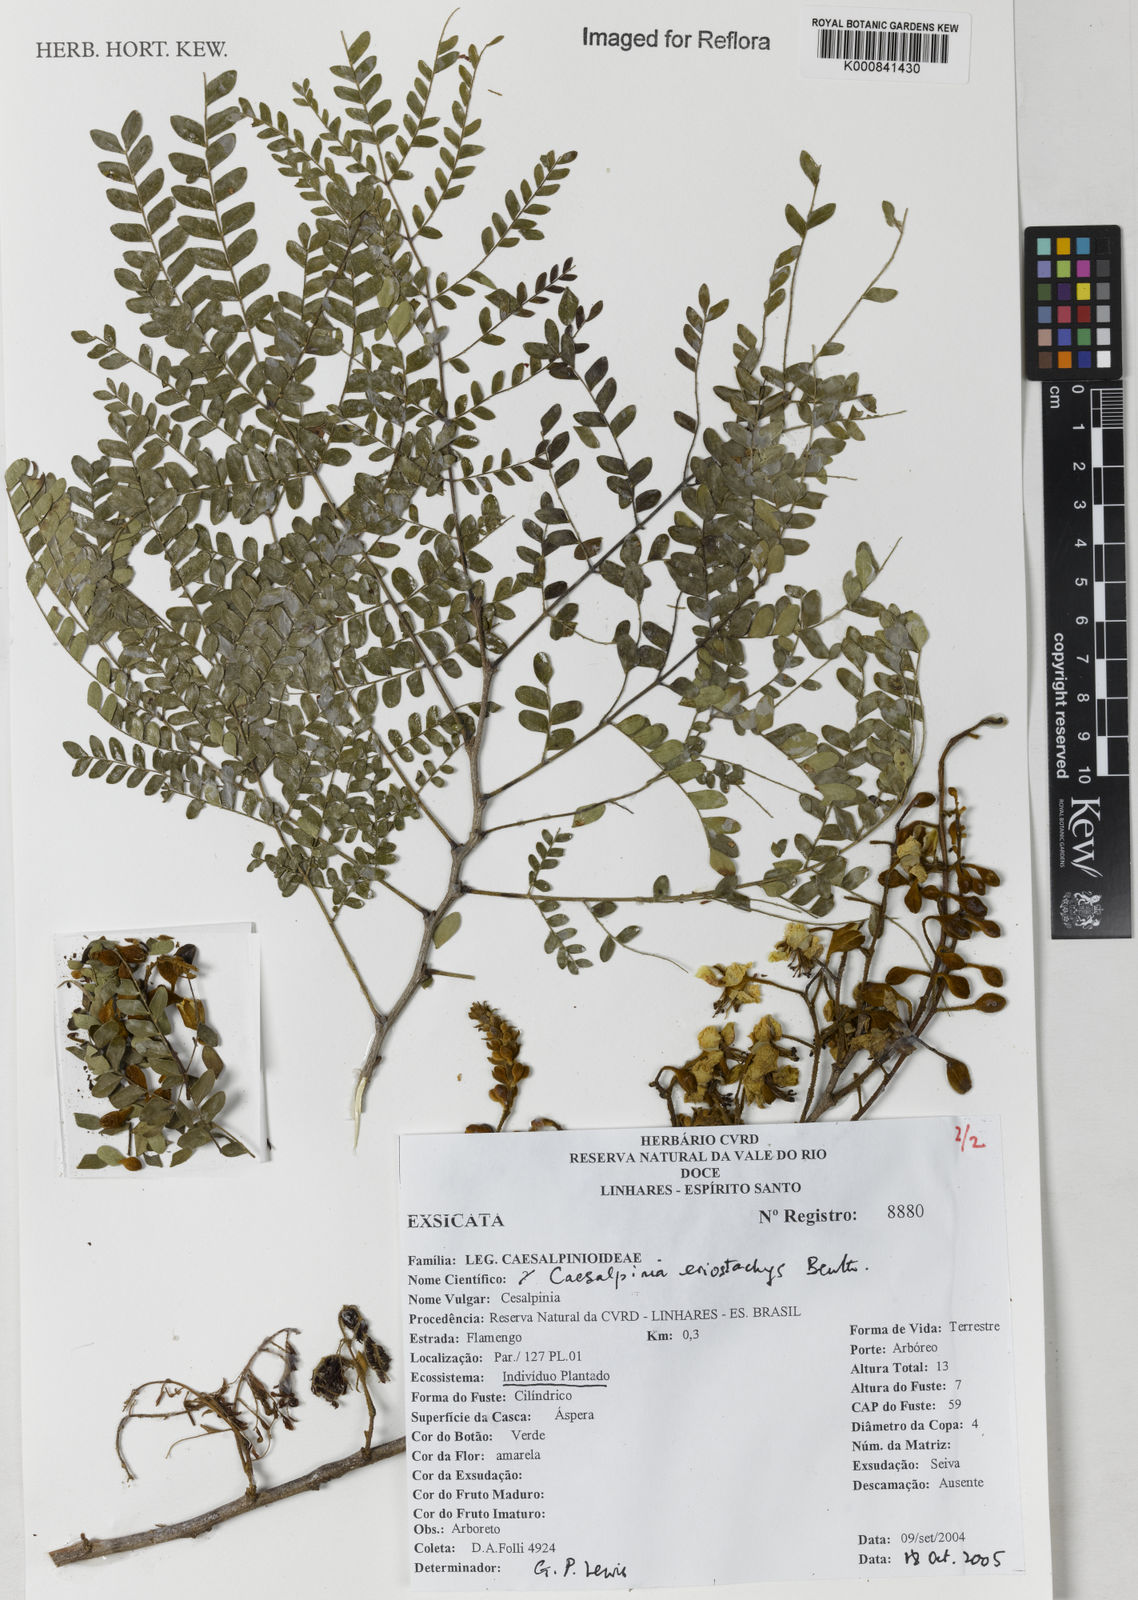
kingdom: Plantae
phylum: Tracheophyta
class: Magnoliopsida
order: Fabales
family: Fabaceae
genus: Cenostigma
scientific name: Cenostigma eriostachys
